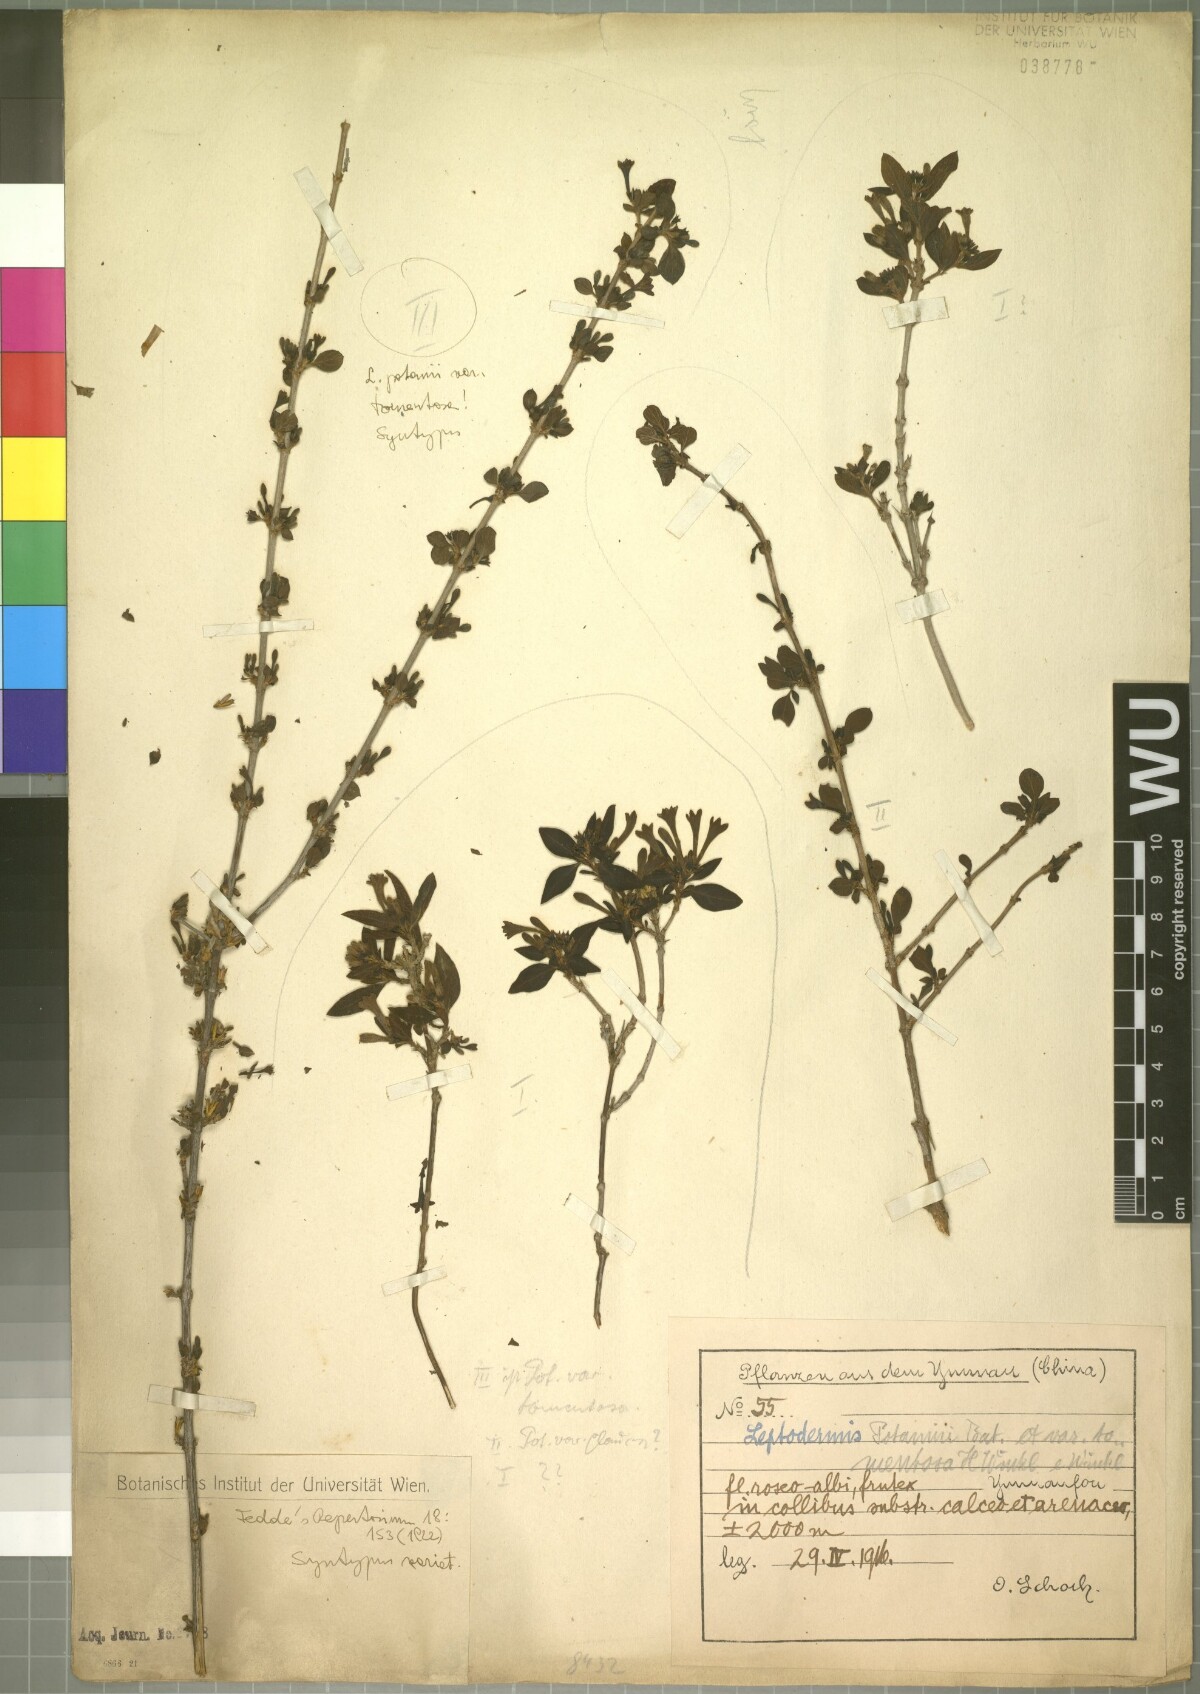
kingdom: Plantae
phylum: Tracheophyta
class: Magnoliopsida
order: Gentianales
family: Rubiaceae
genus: Leptodermis
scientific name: Leptodermis potaninii
